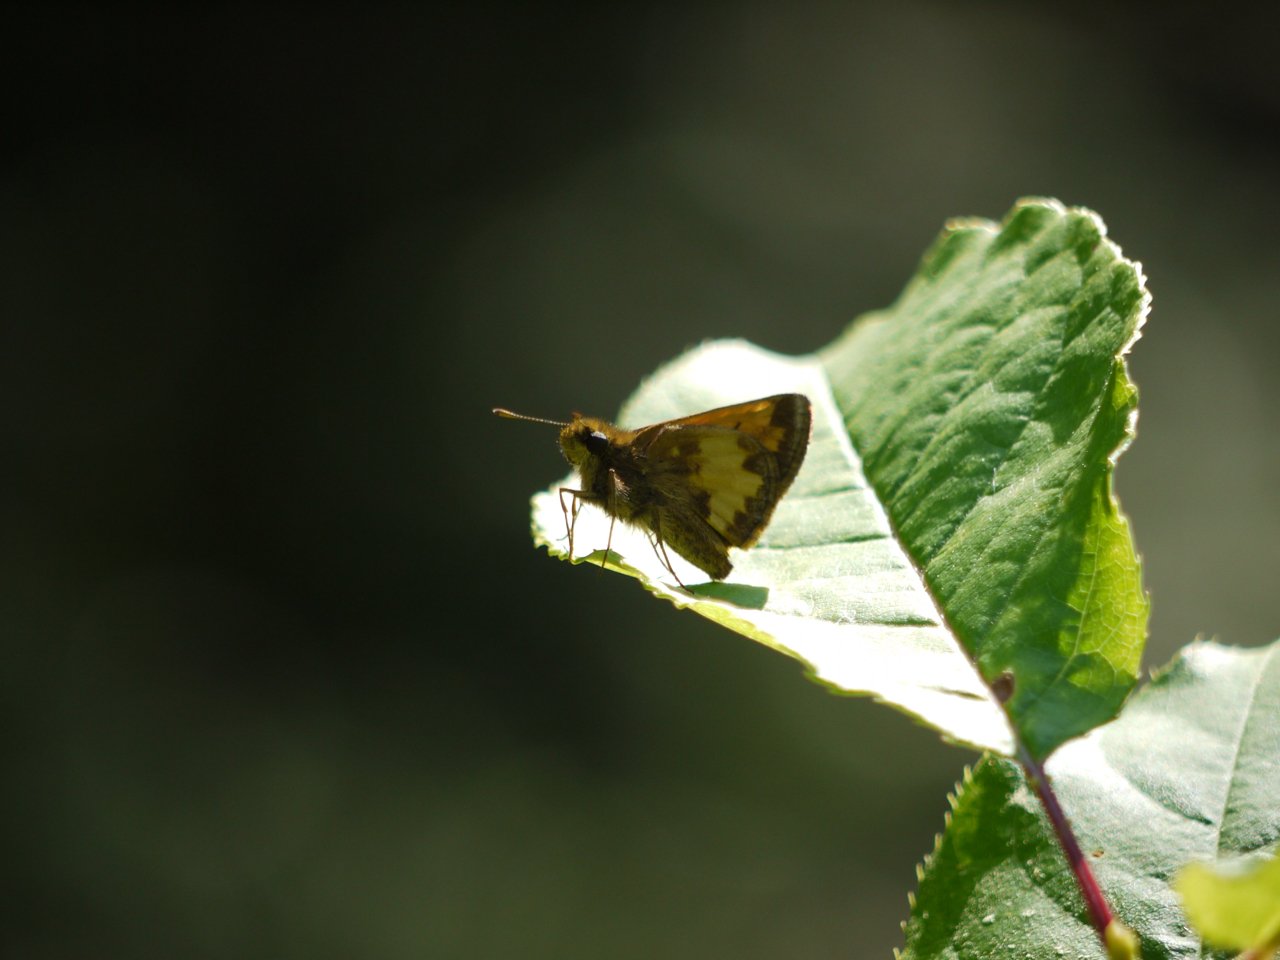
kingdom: Animalia
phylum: Arthropoda
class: Insecta
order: Lepidoptera
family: Hesperiidae
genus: Lon
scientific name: Lon hobomok
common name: Hobomok Skipper
